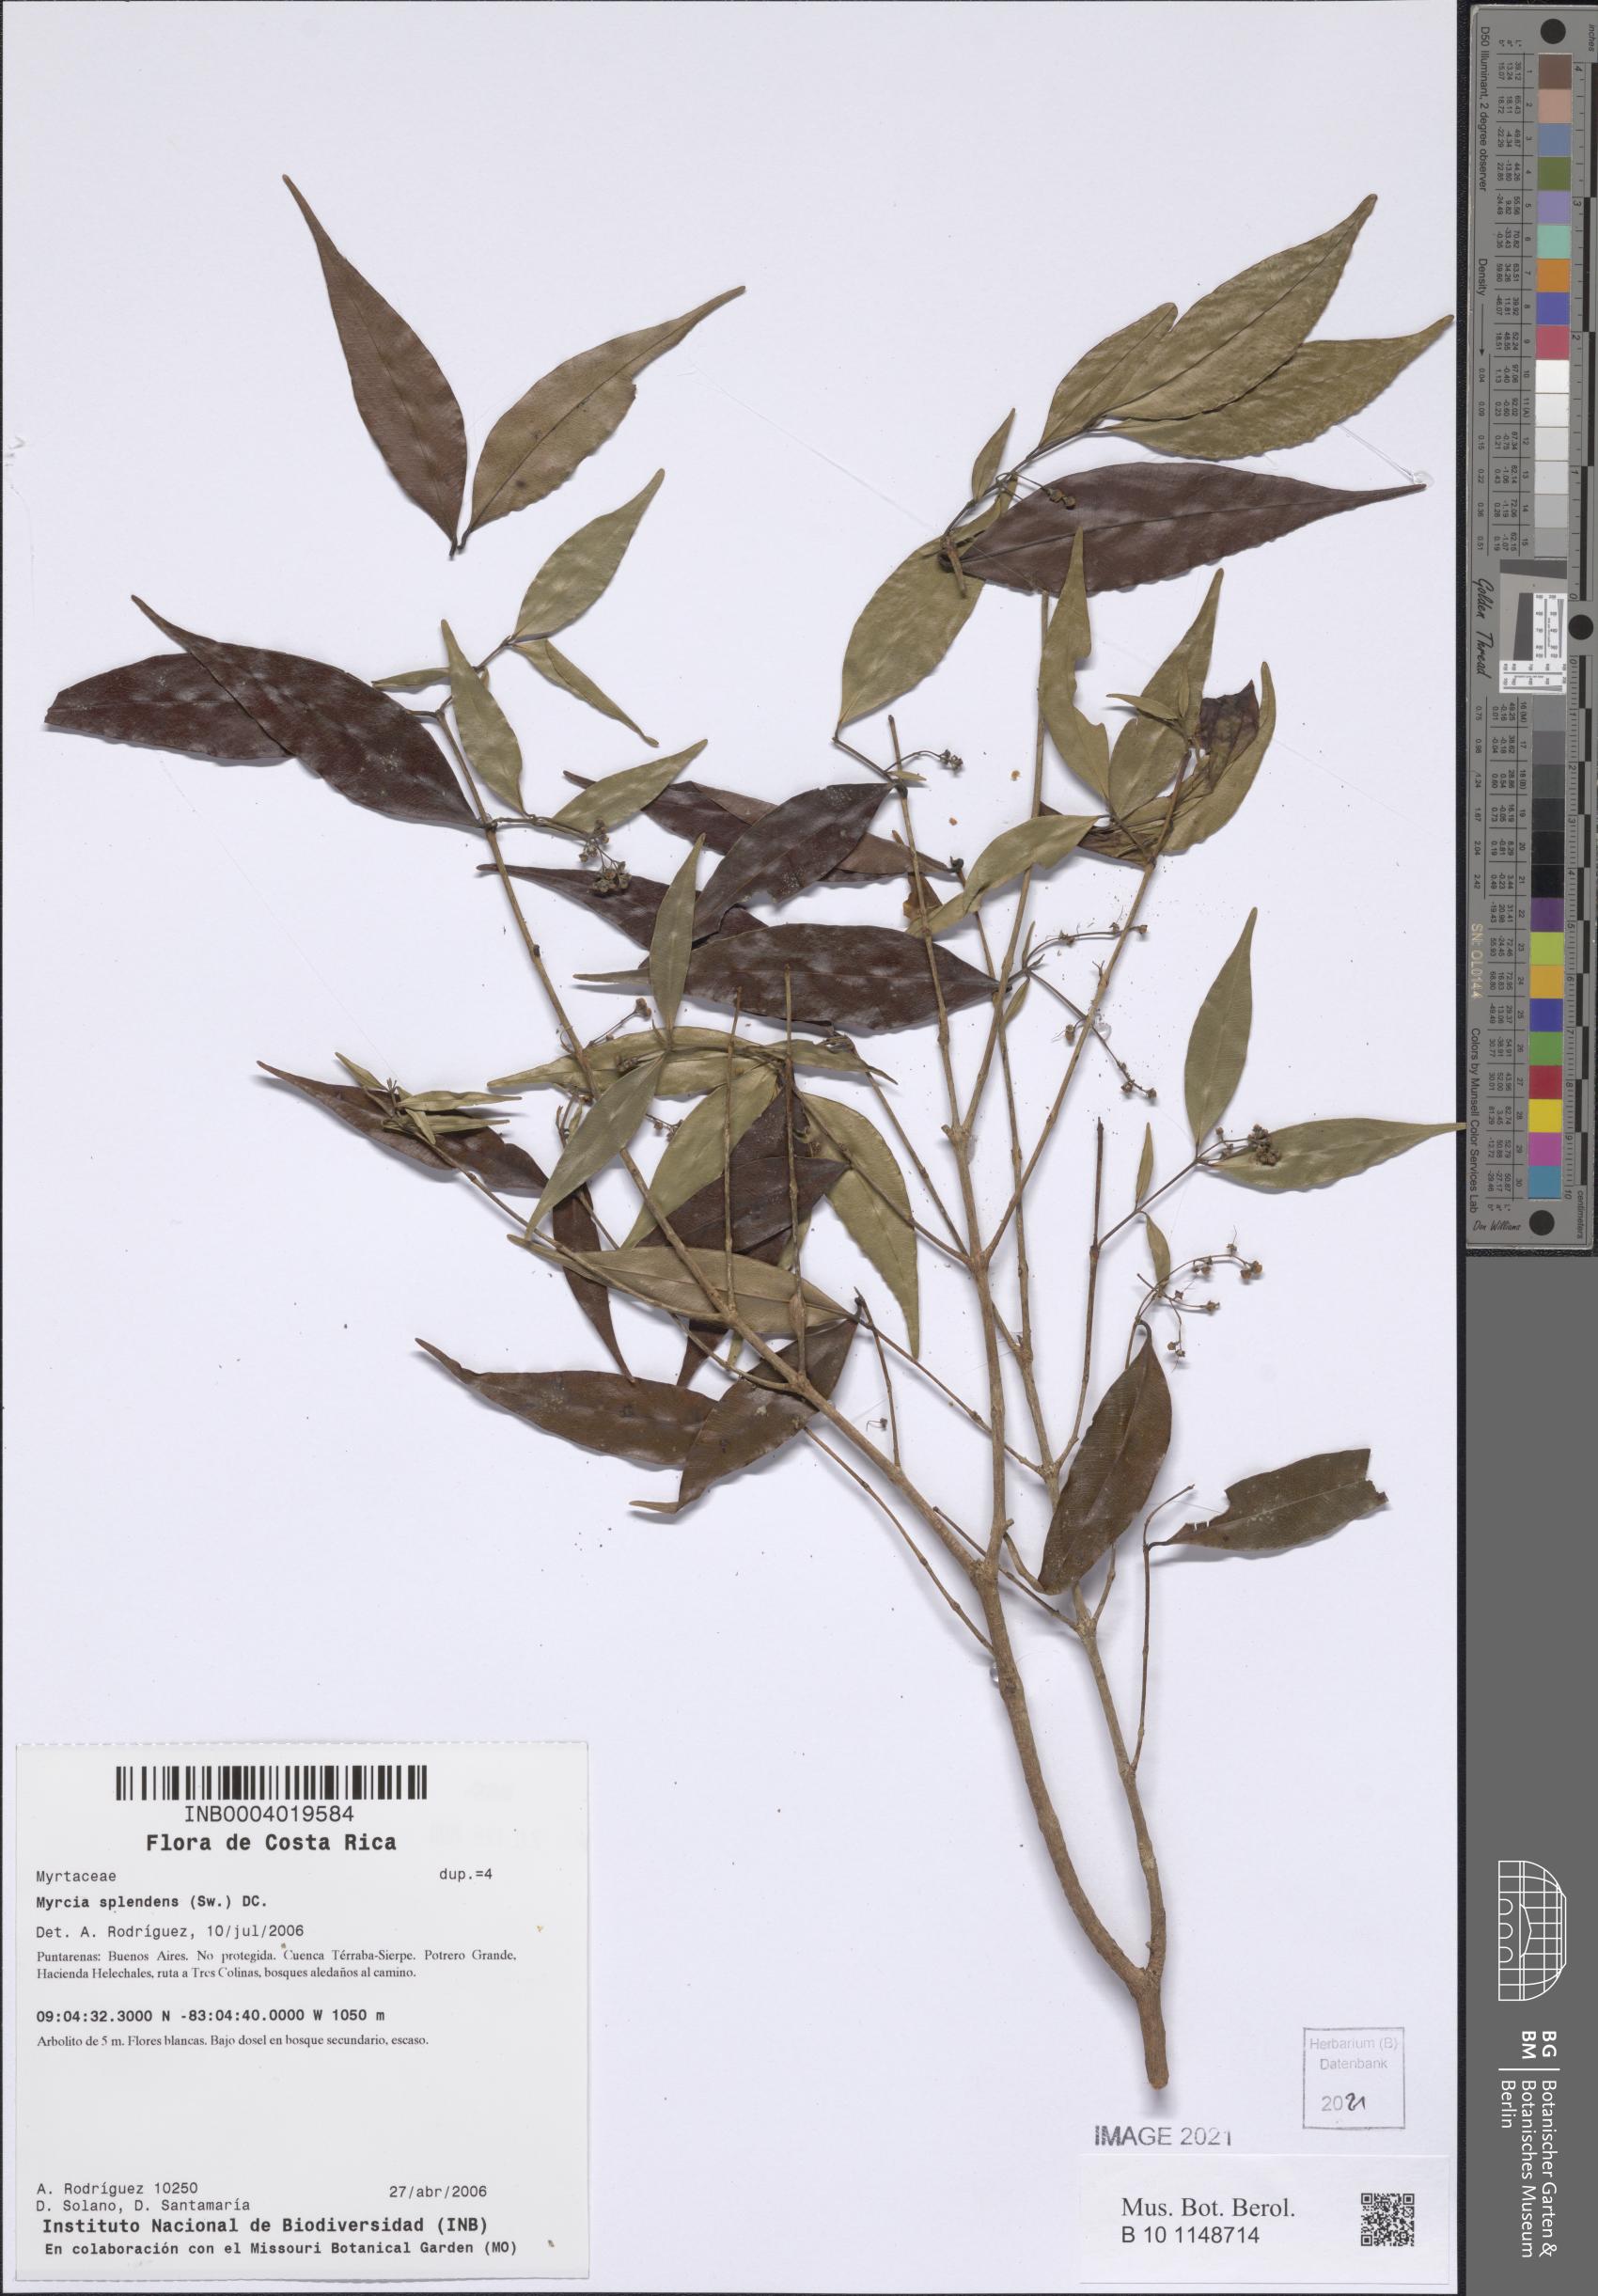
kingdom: Plantae
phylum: Tracheophyta
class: Magnoliopsida
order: Myrtales
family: Myrtaceae
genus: Myrcia
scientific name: Myrcia splendens
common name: Surinam cherry
